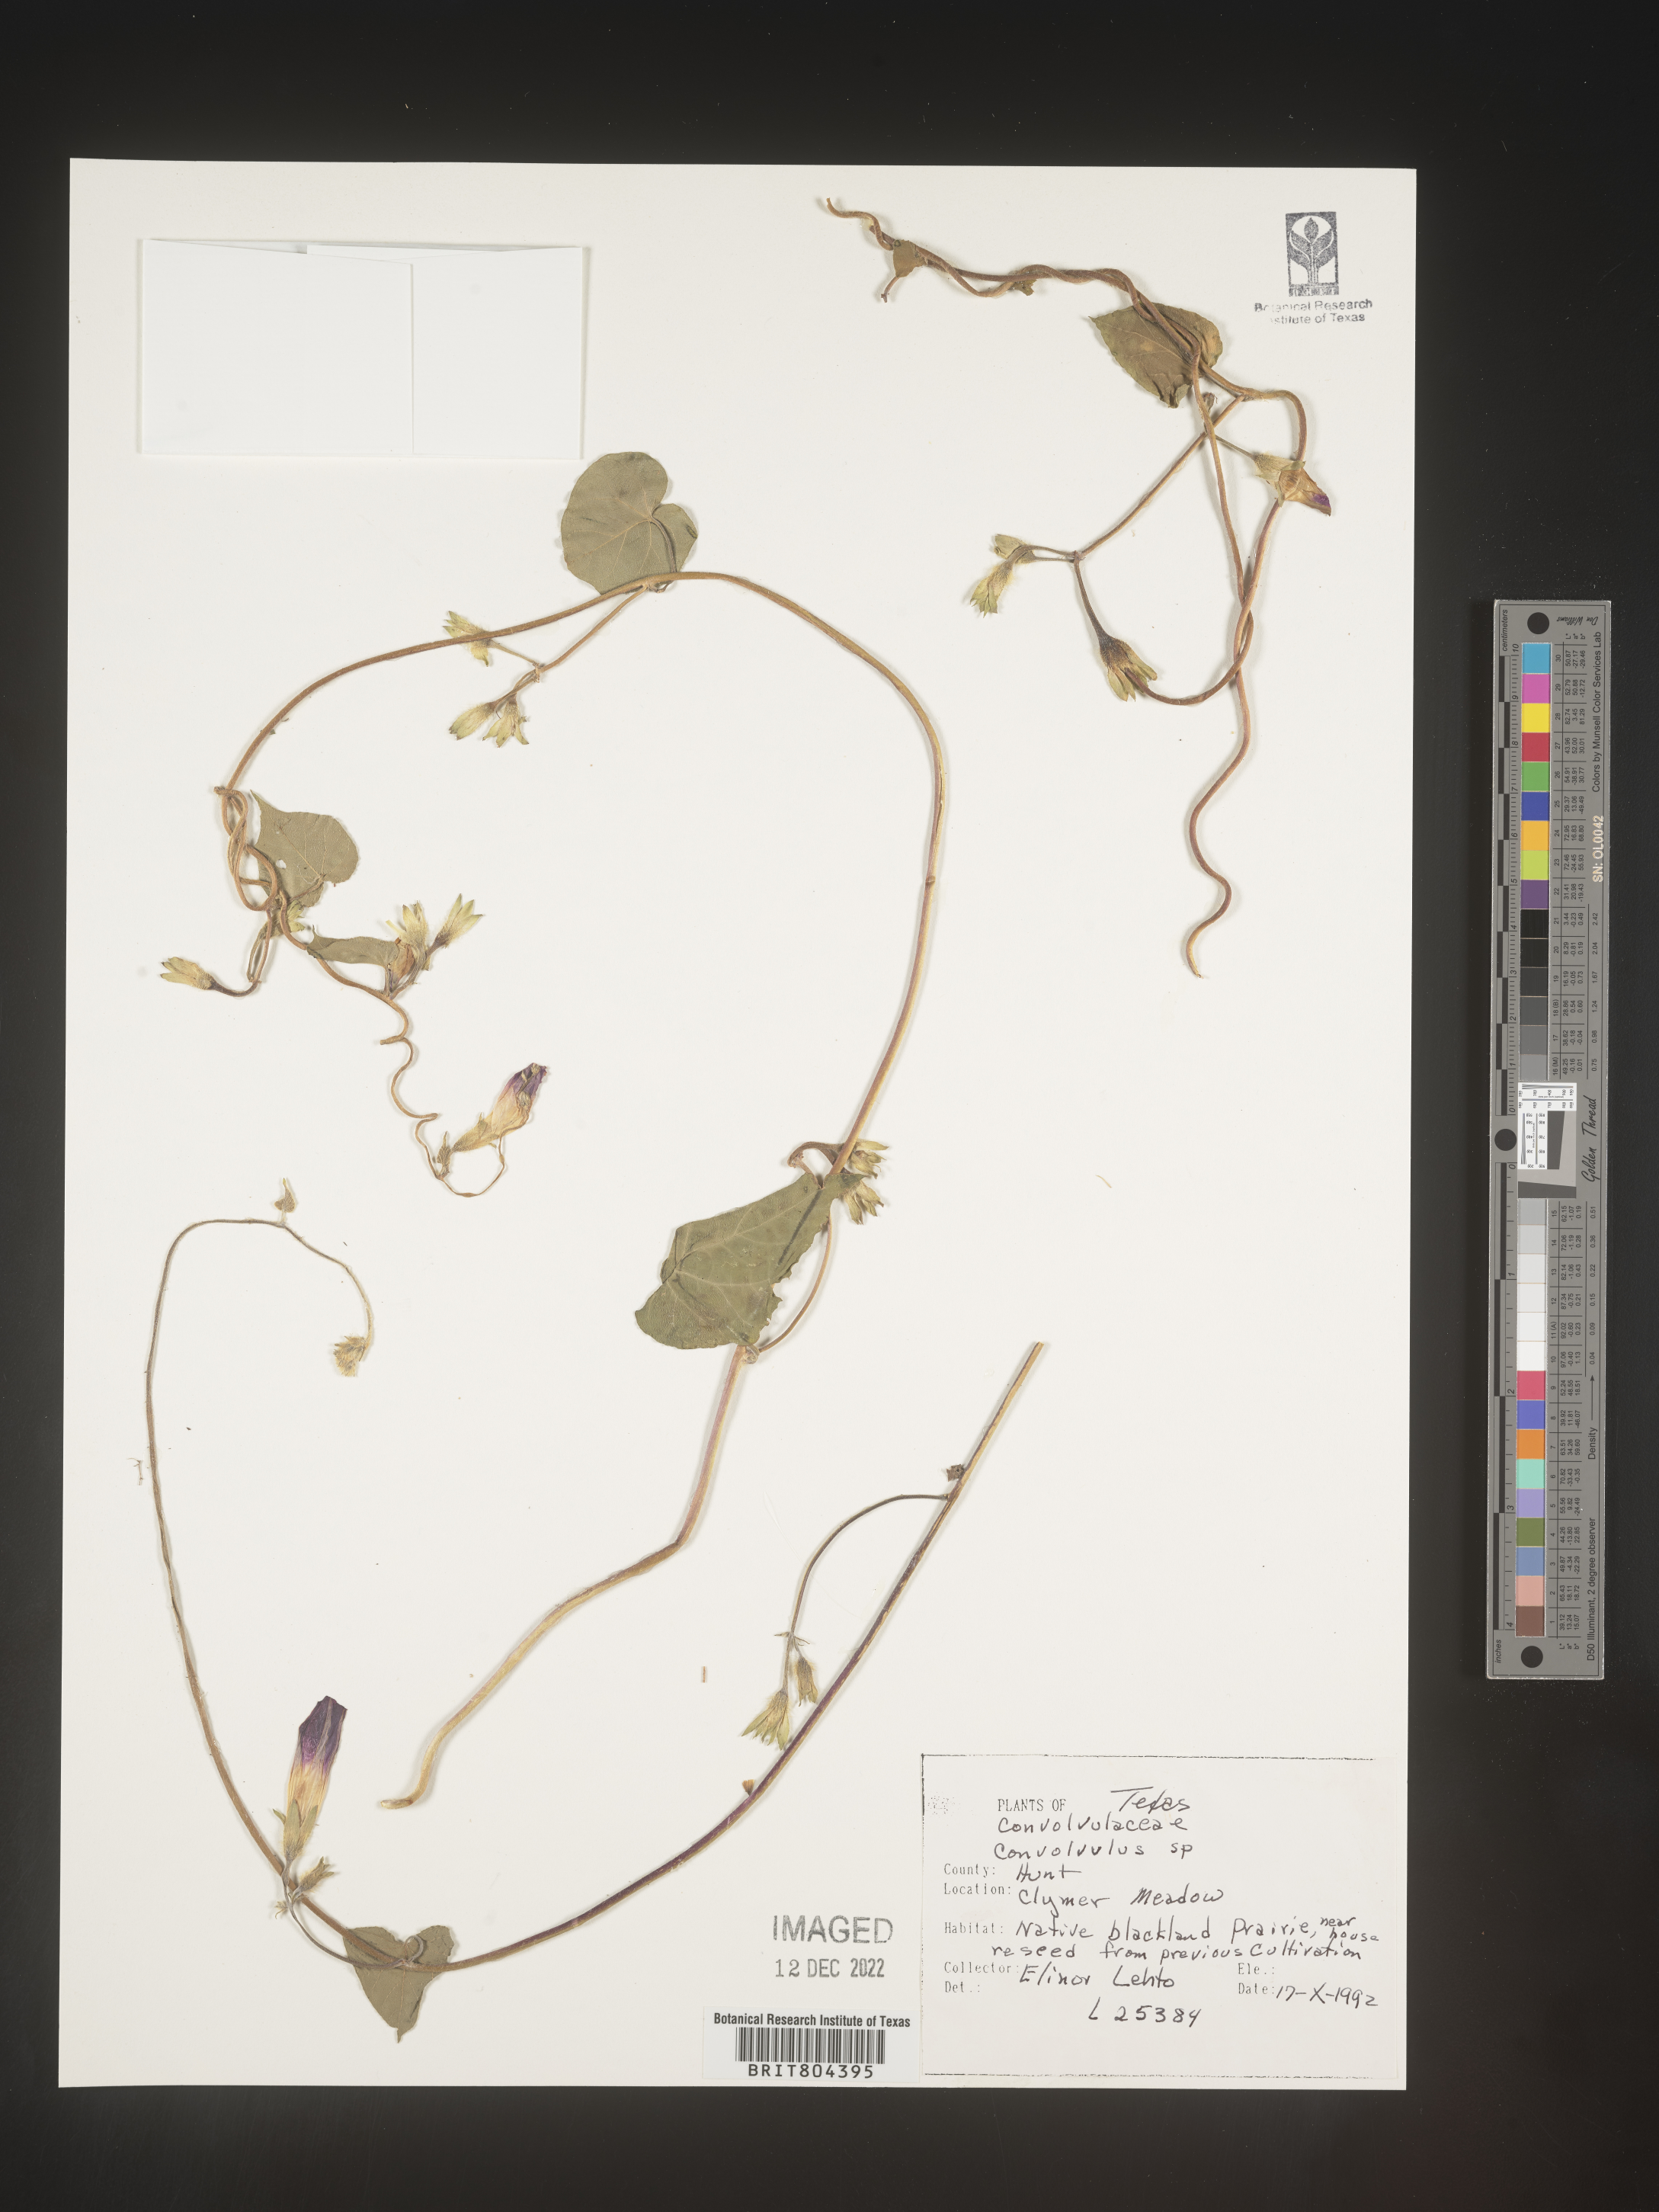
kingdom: Plantae
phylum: Tracheophyta
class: Magnoliopsida
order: Solanales
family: Convolvulaceae
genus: Convolvulus
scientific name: Convolvulus
